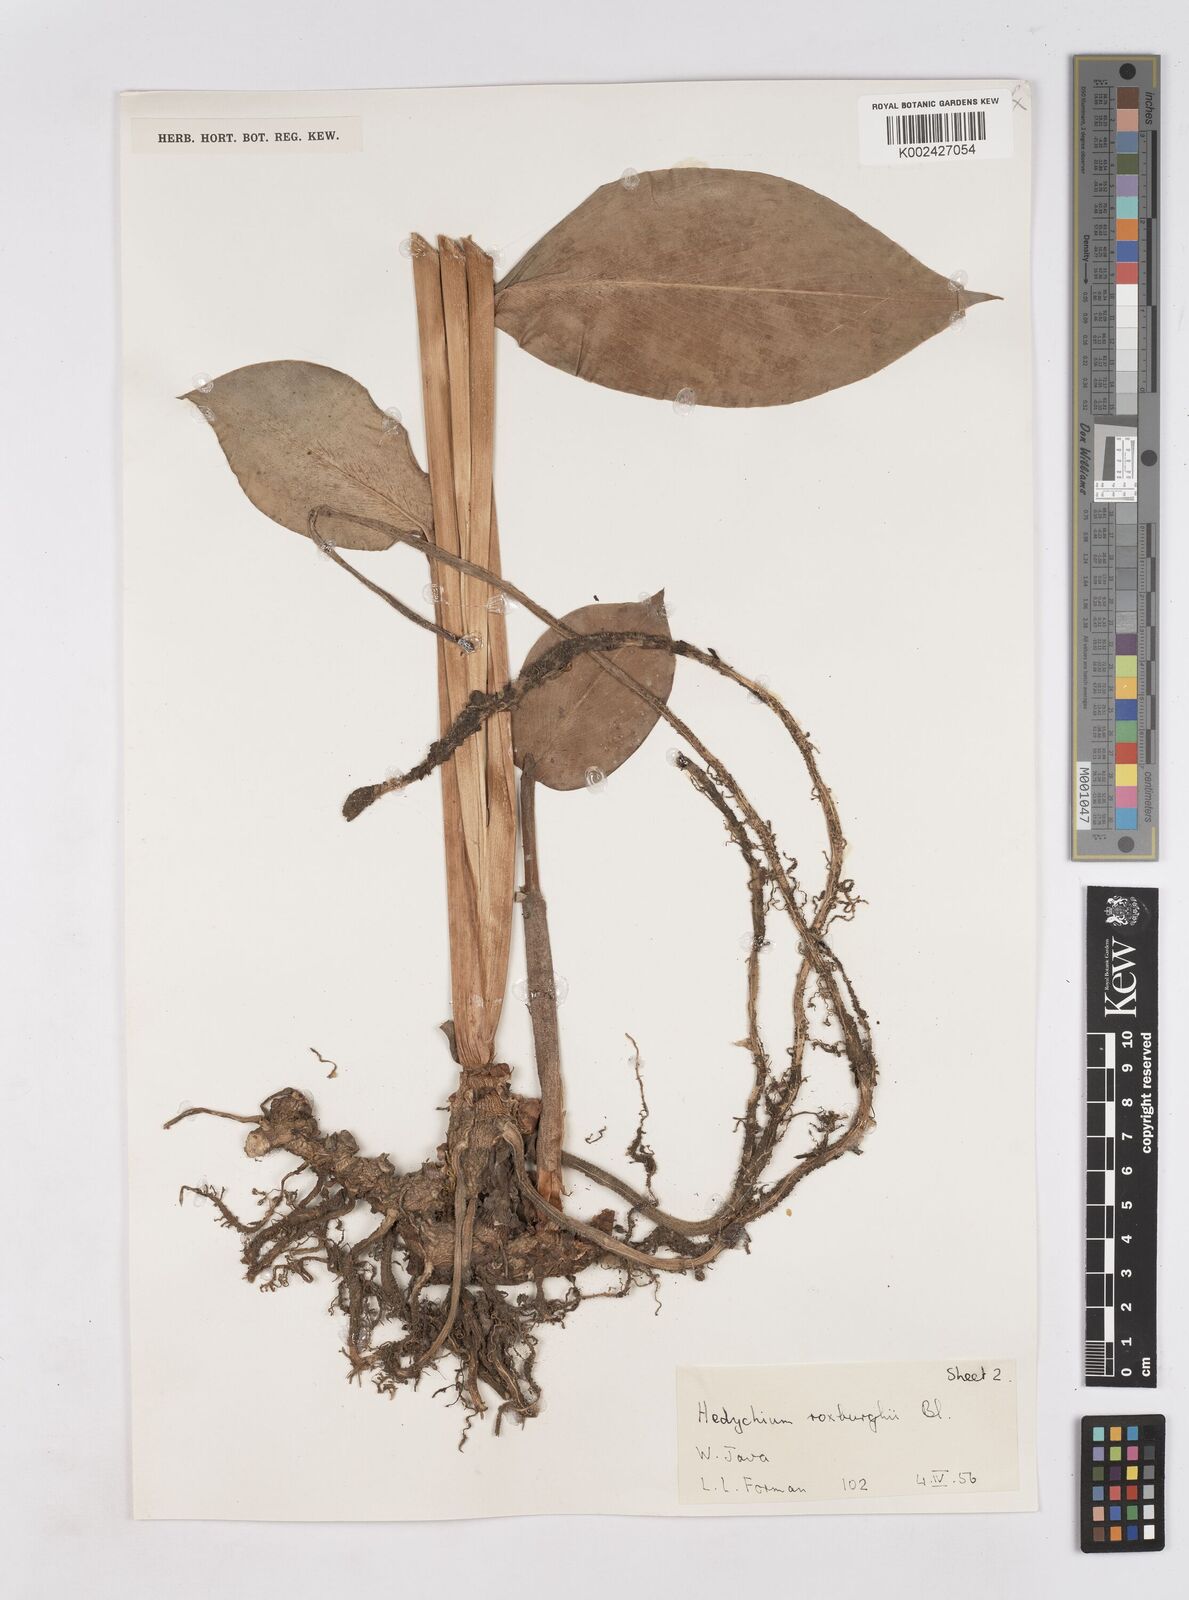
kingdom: Plantae
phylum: Tracheophyta
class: Liliopsida
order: Zingiberales
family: Zingiberaceae
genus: Hedychium
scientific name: Hedychium roxburghii
